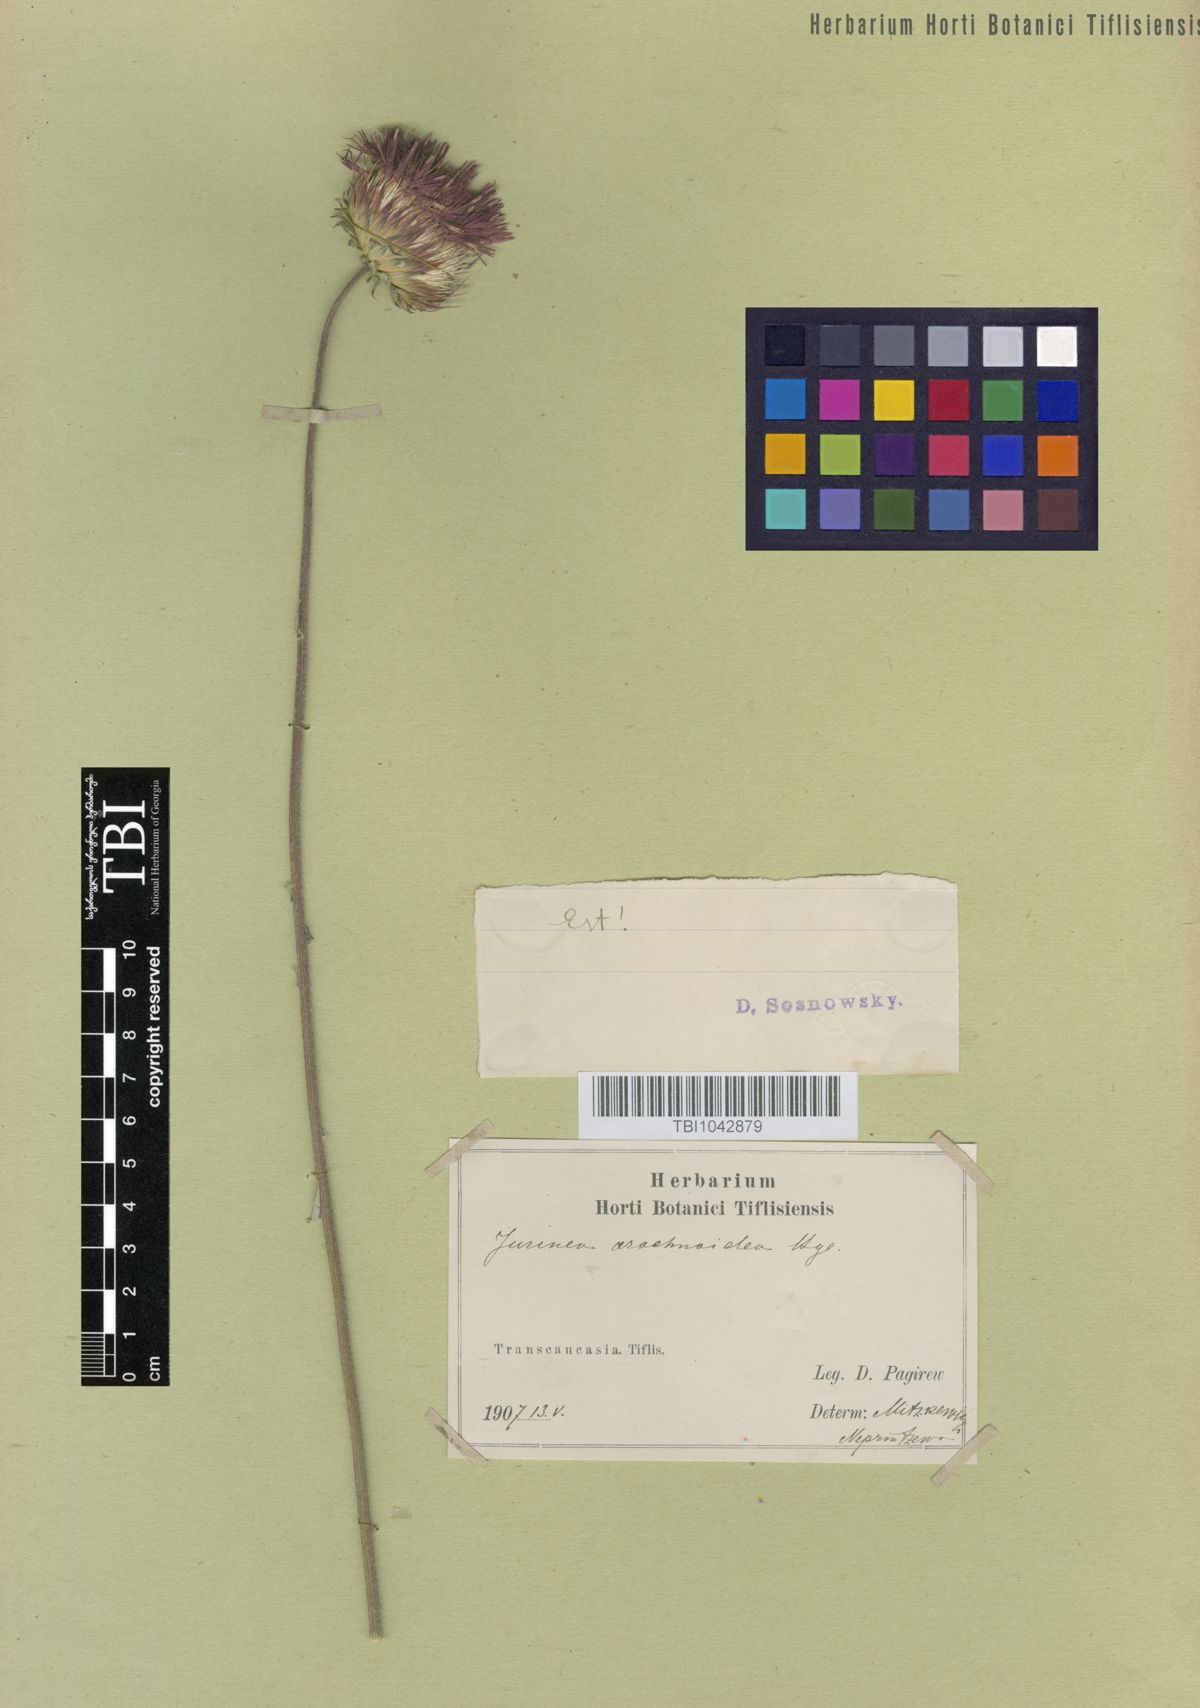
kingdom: Plantae
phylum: Tracheophyta
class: Magnoliopsida
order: Asterales
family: Asteraceae
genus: Jurinea
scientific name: Jurinea blanda
